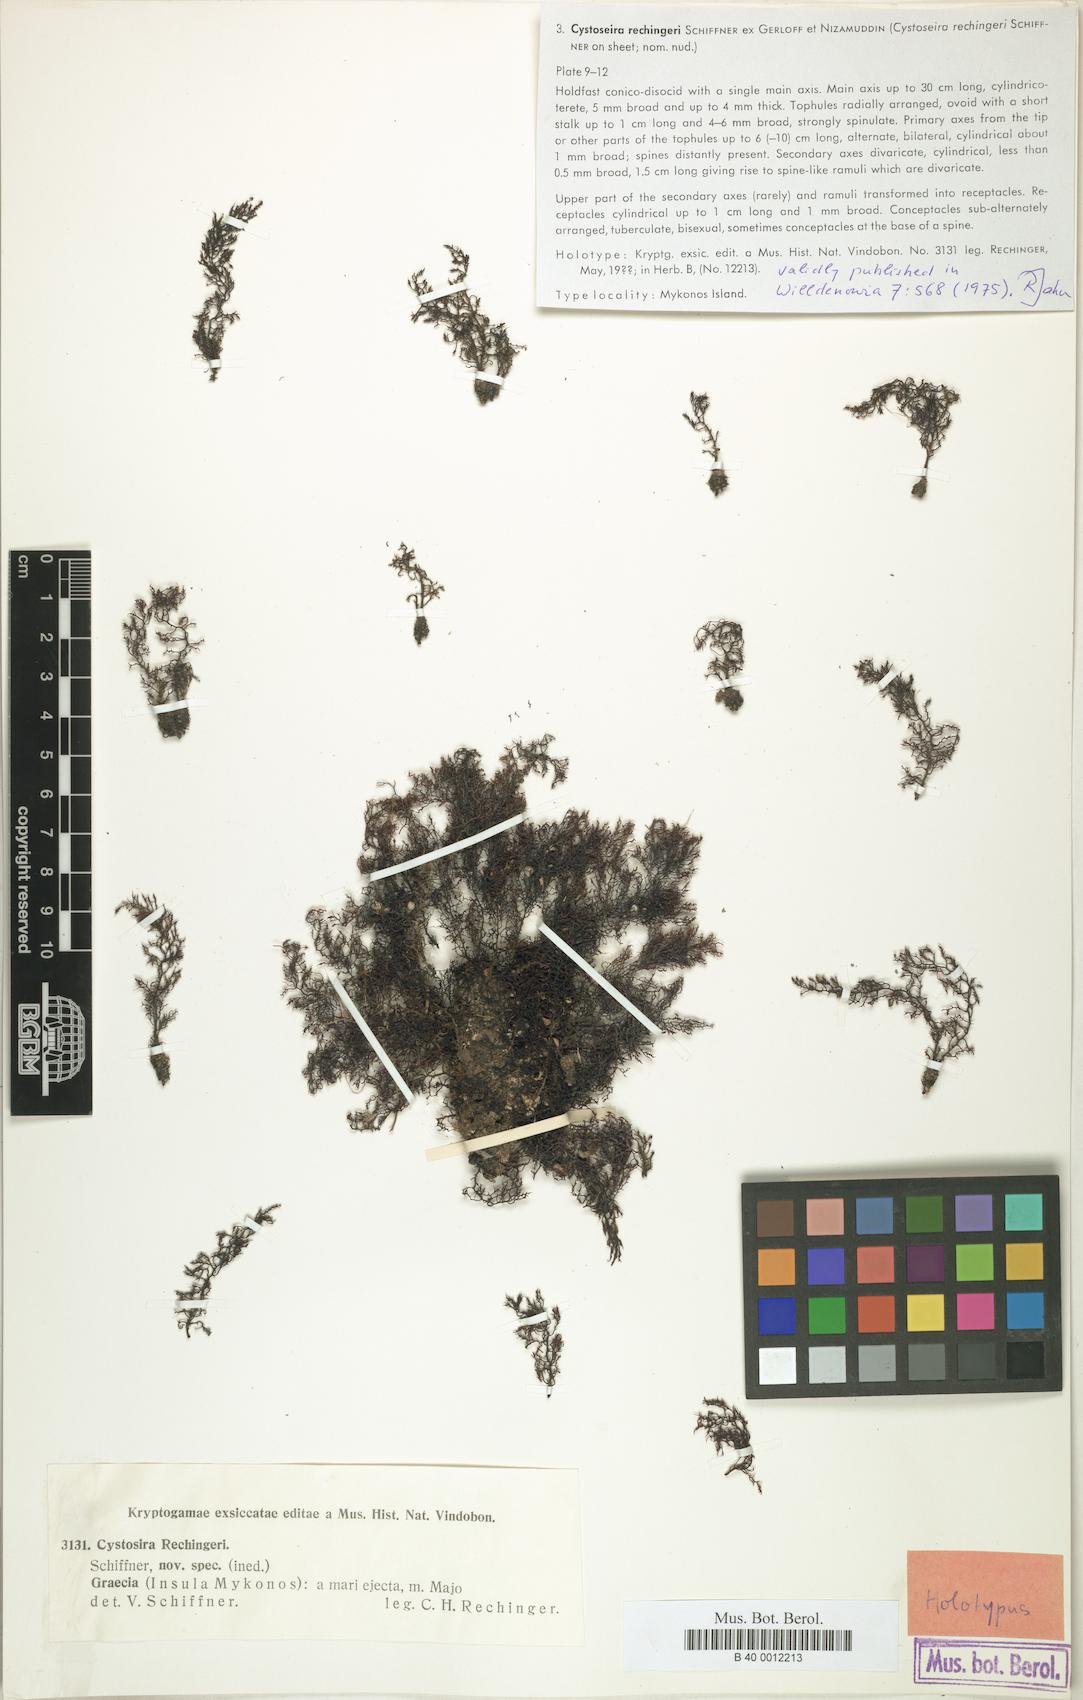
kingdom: Chromista
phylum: Ochrophyta
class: Phaeophyceae
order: Fucales
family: Sargassaceae
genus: Cystoseira
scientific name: Cystoseira Gongolaria montagnei
